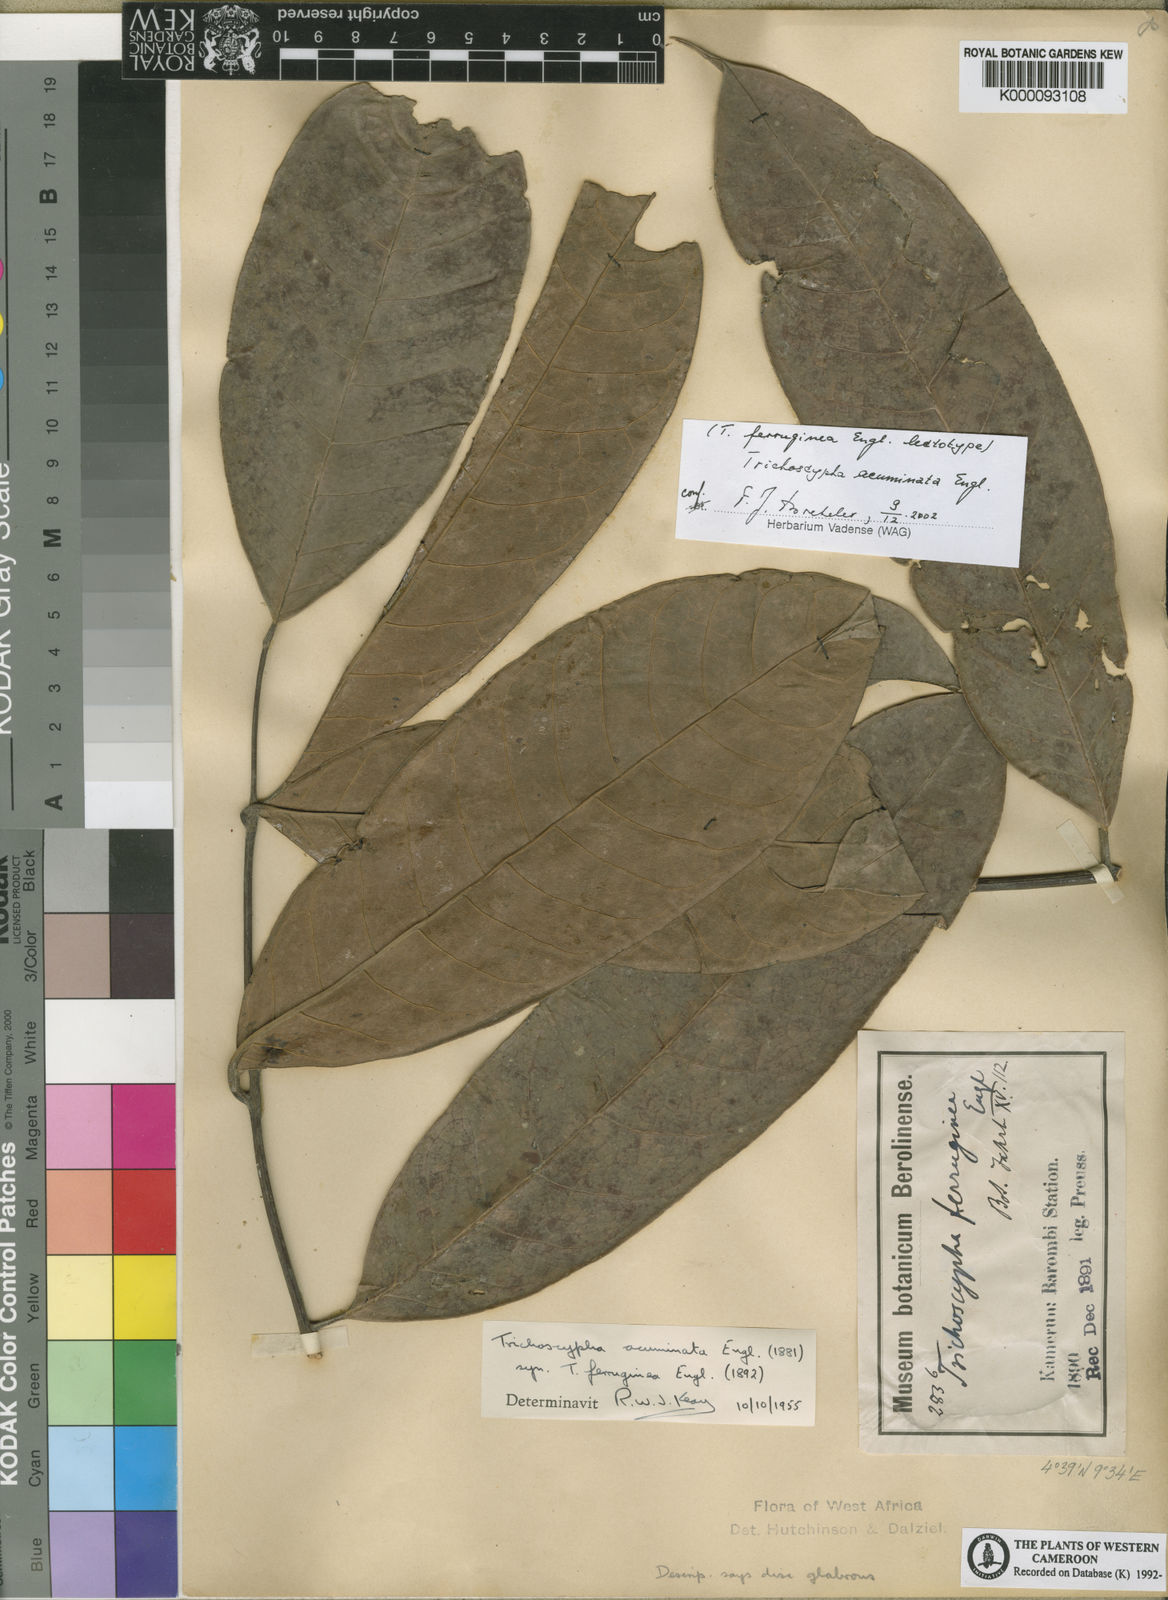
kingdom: Plantae
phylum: Tracheophyta
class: Magnoliopsida
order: Sapindales
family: Anacardiaceae
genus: Trichoscypha
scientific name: Trichoscypha acuminata
